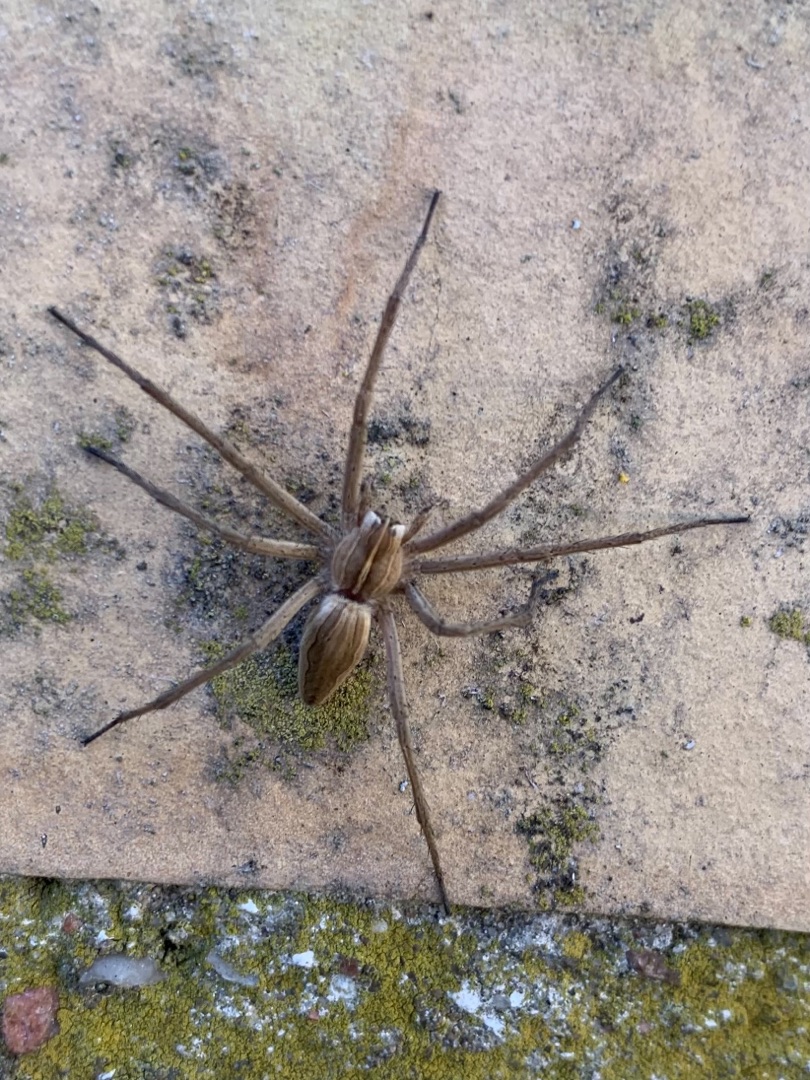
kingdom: Animalia
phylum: Arthropoda
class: Arachnida
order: Araneae
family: Pisauridae
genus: Pisaura
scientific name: Pisaura mirabilis
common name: Almindelig rovedderkop
